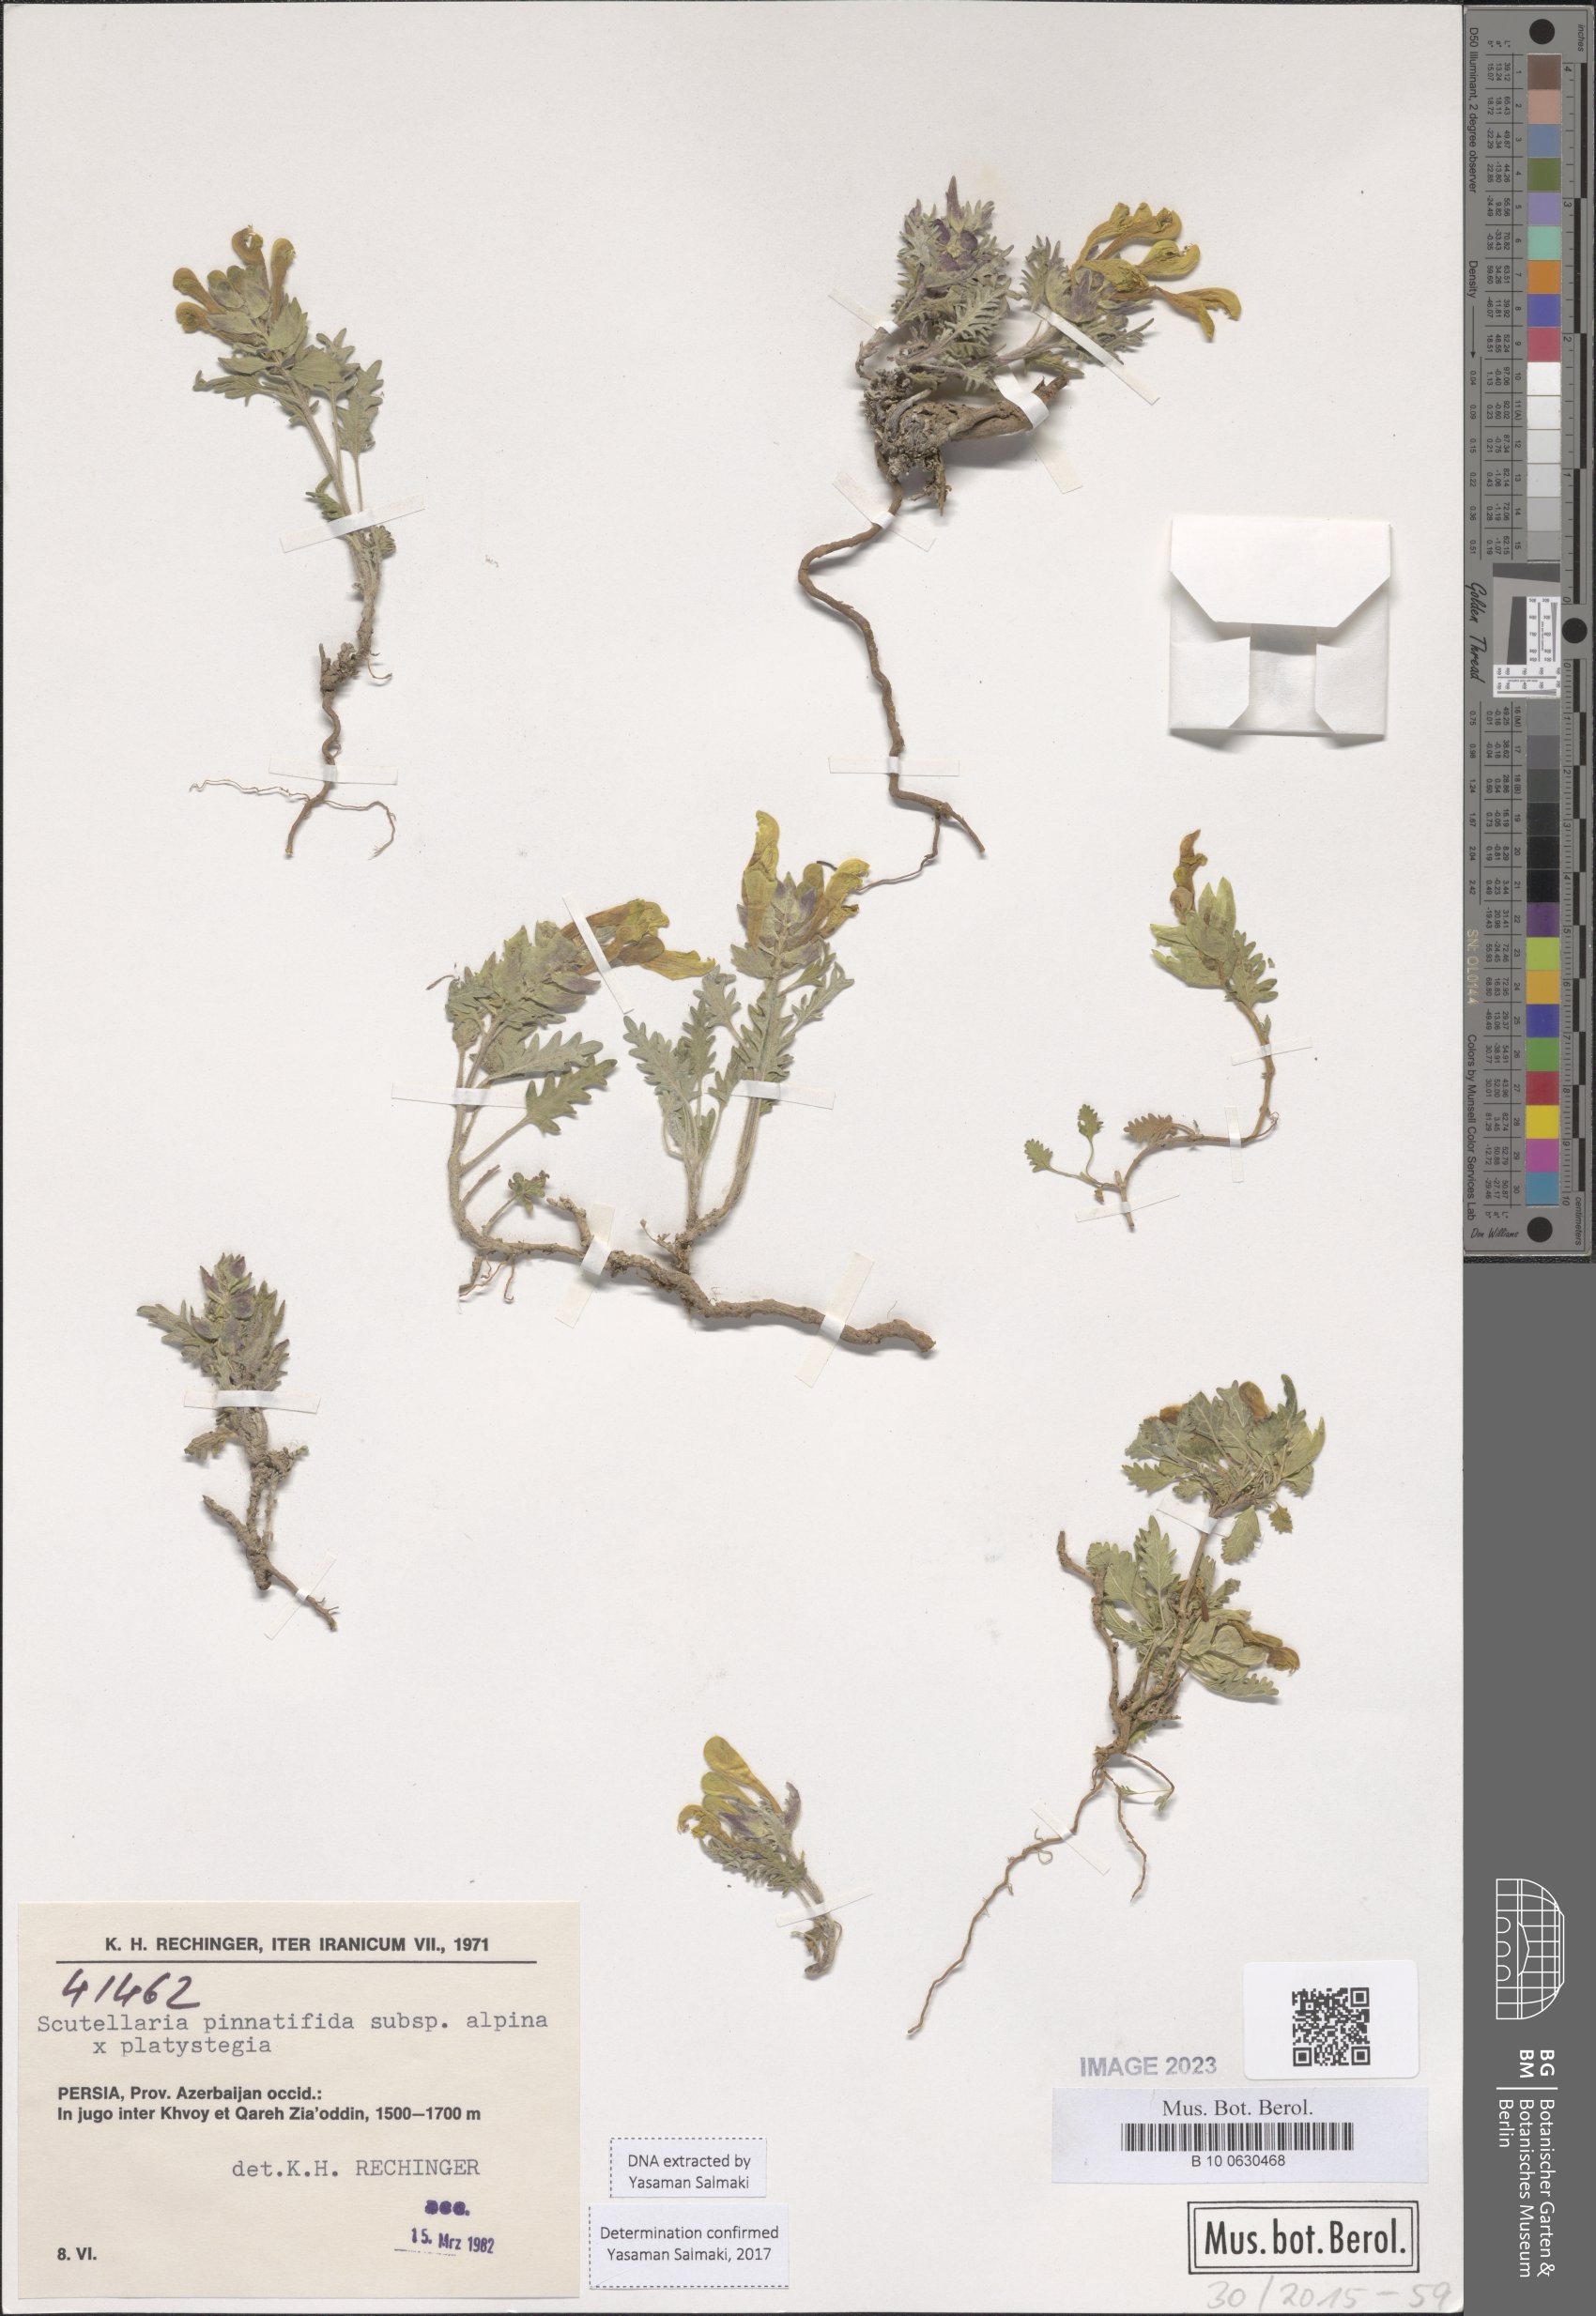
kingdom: Plantae
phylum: Tracheophyta
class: Magnoliopsida
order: Lamiales
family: Lamiaceae
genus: Scutellaria
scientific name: Scutellaria pinnatifida
